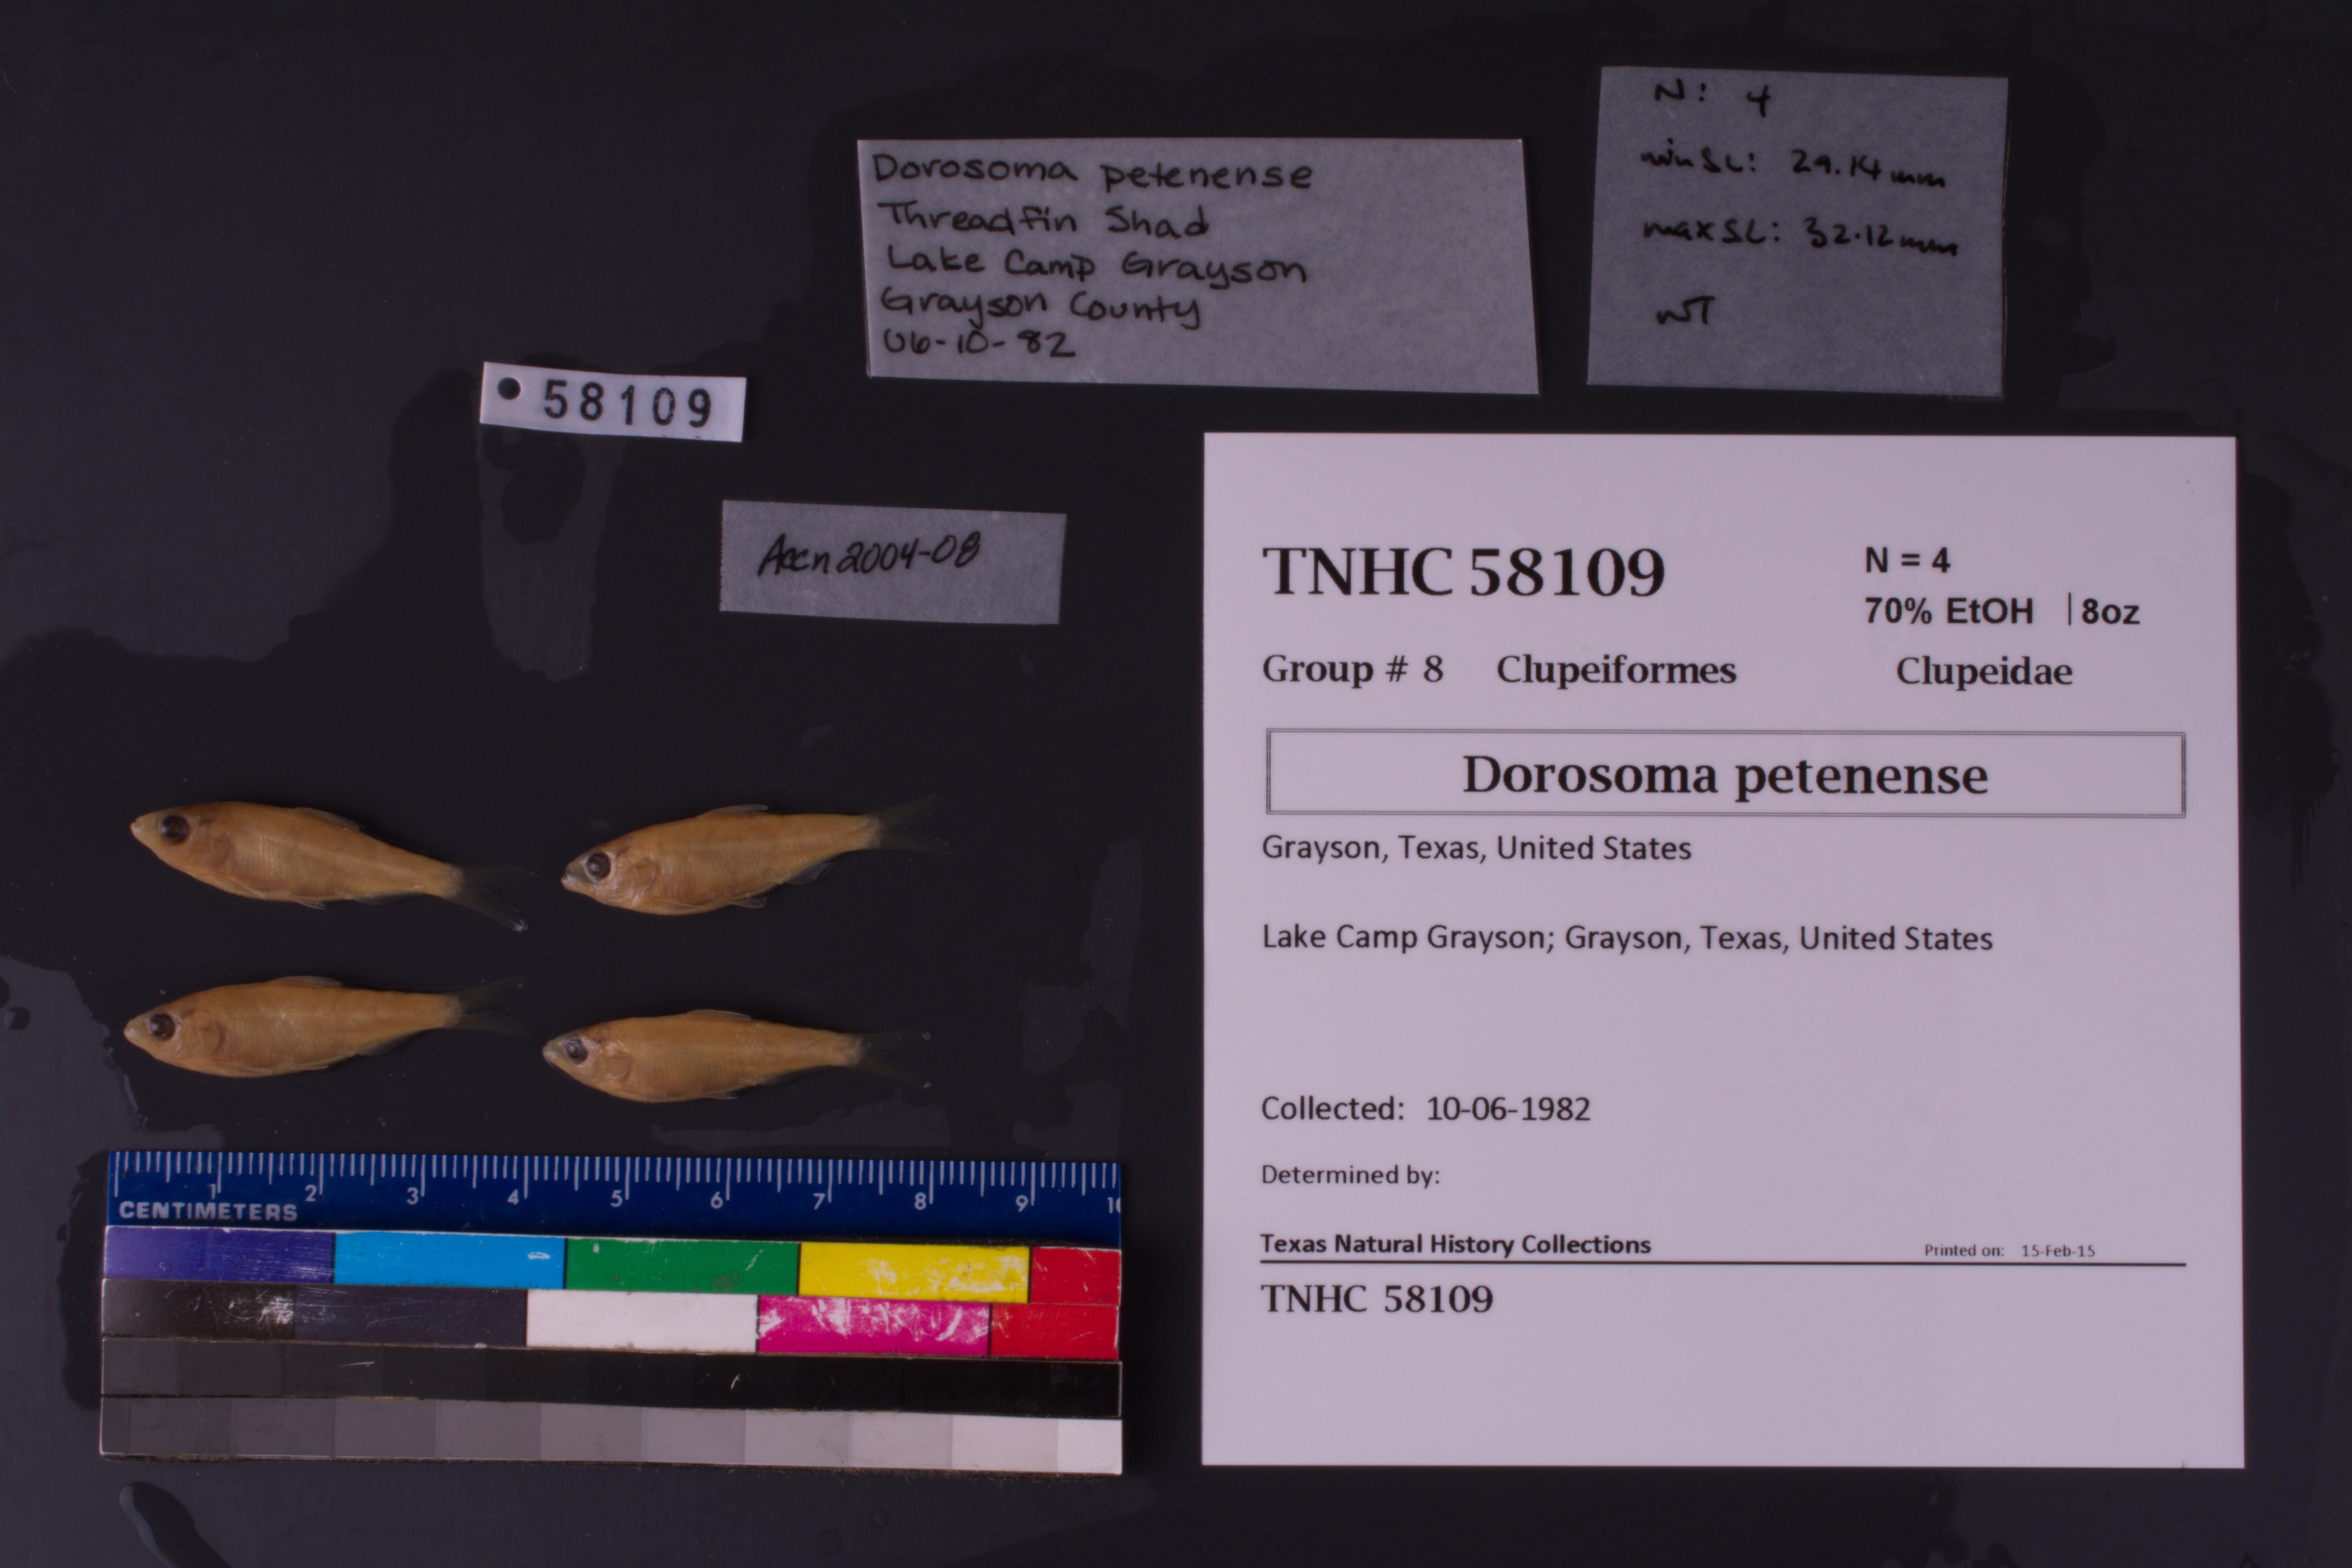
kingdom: Animalia
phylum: Chordata
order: Clupeiformes
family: Clupeidae
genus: Dorosoma
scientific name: Dorosoma petenense
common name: Threadfin shad
